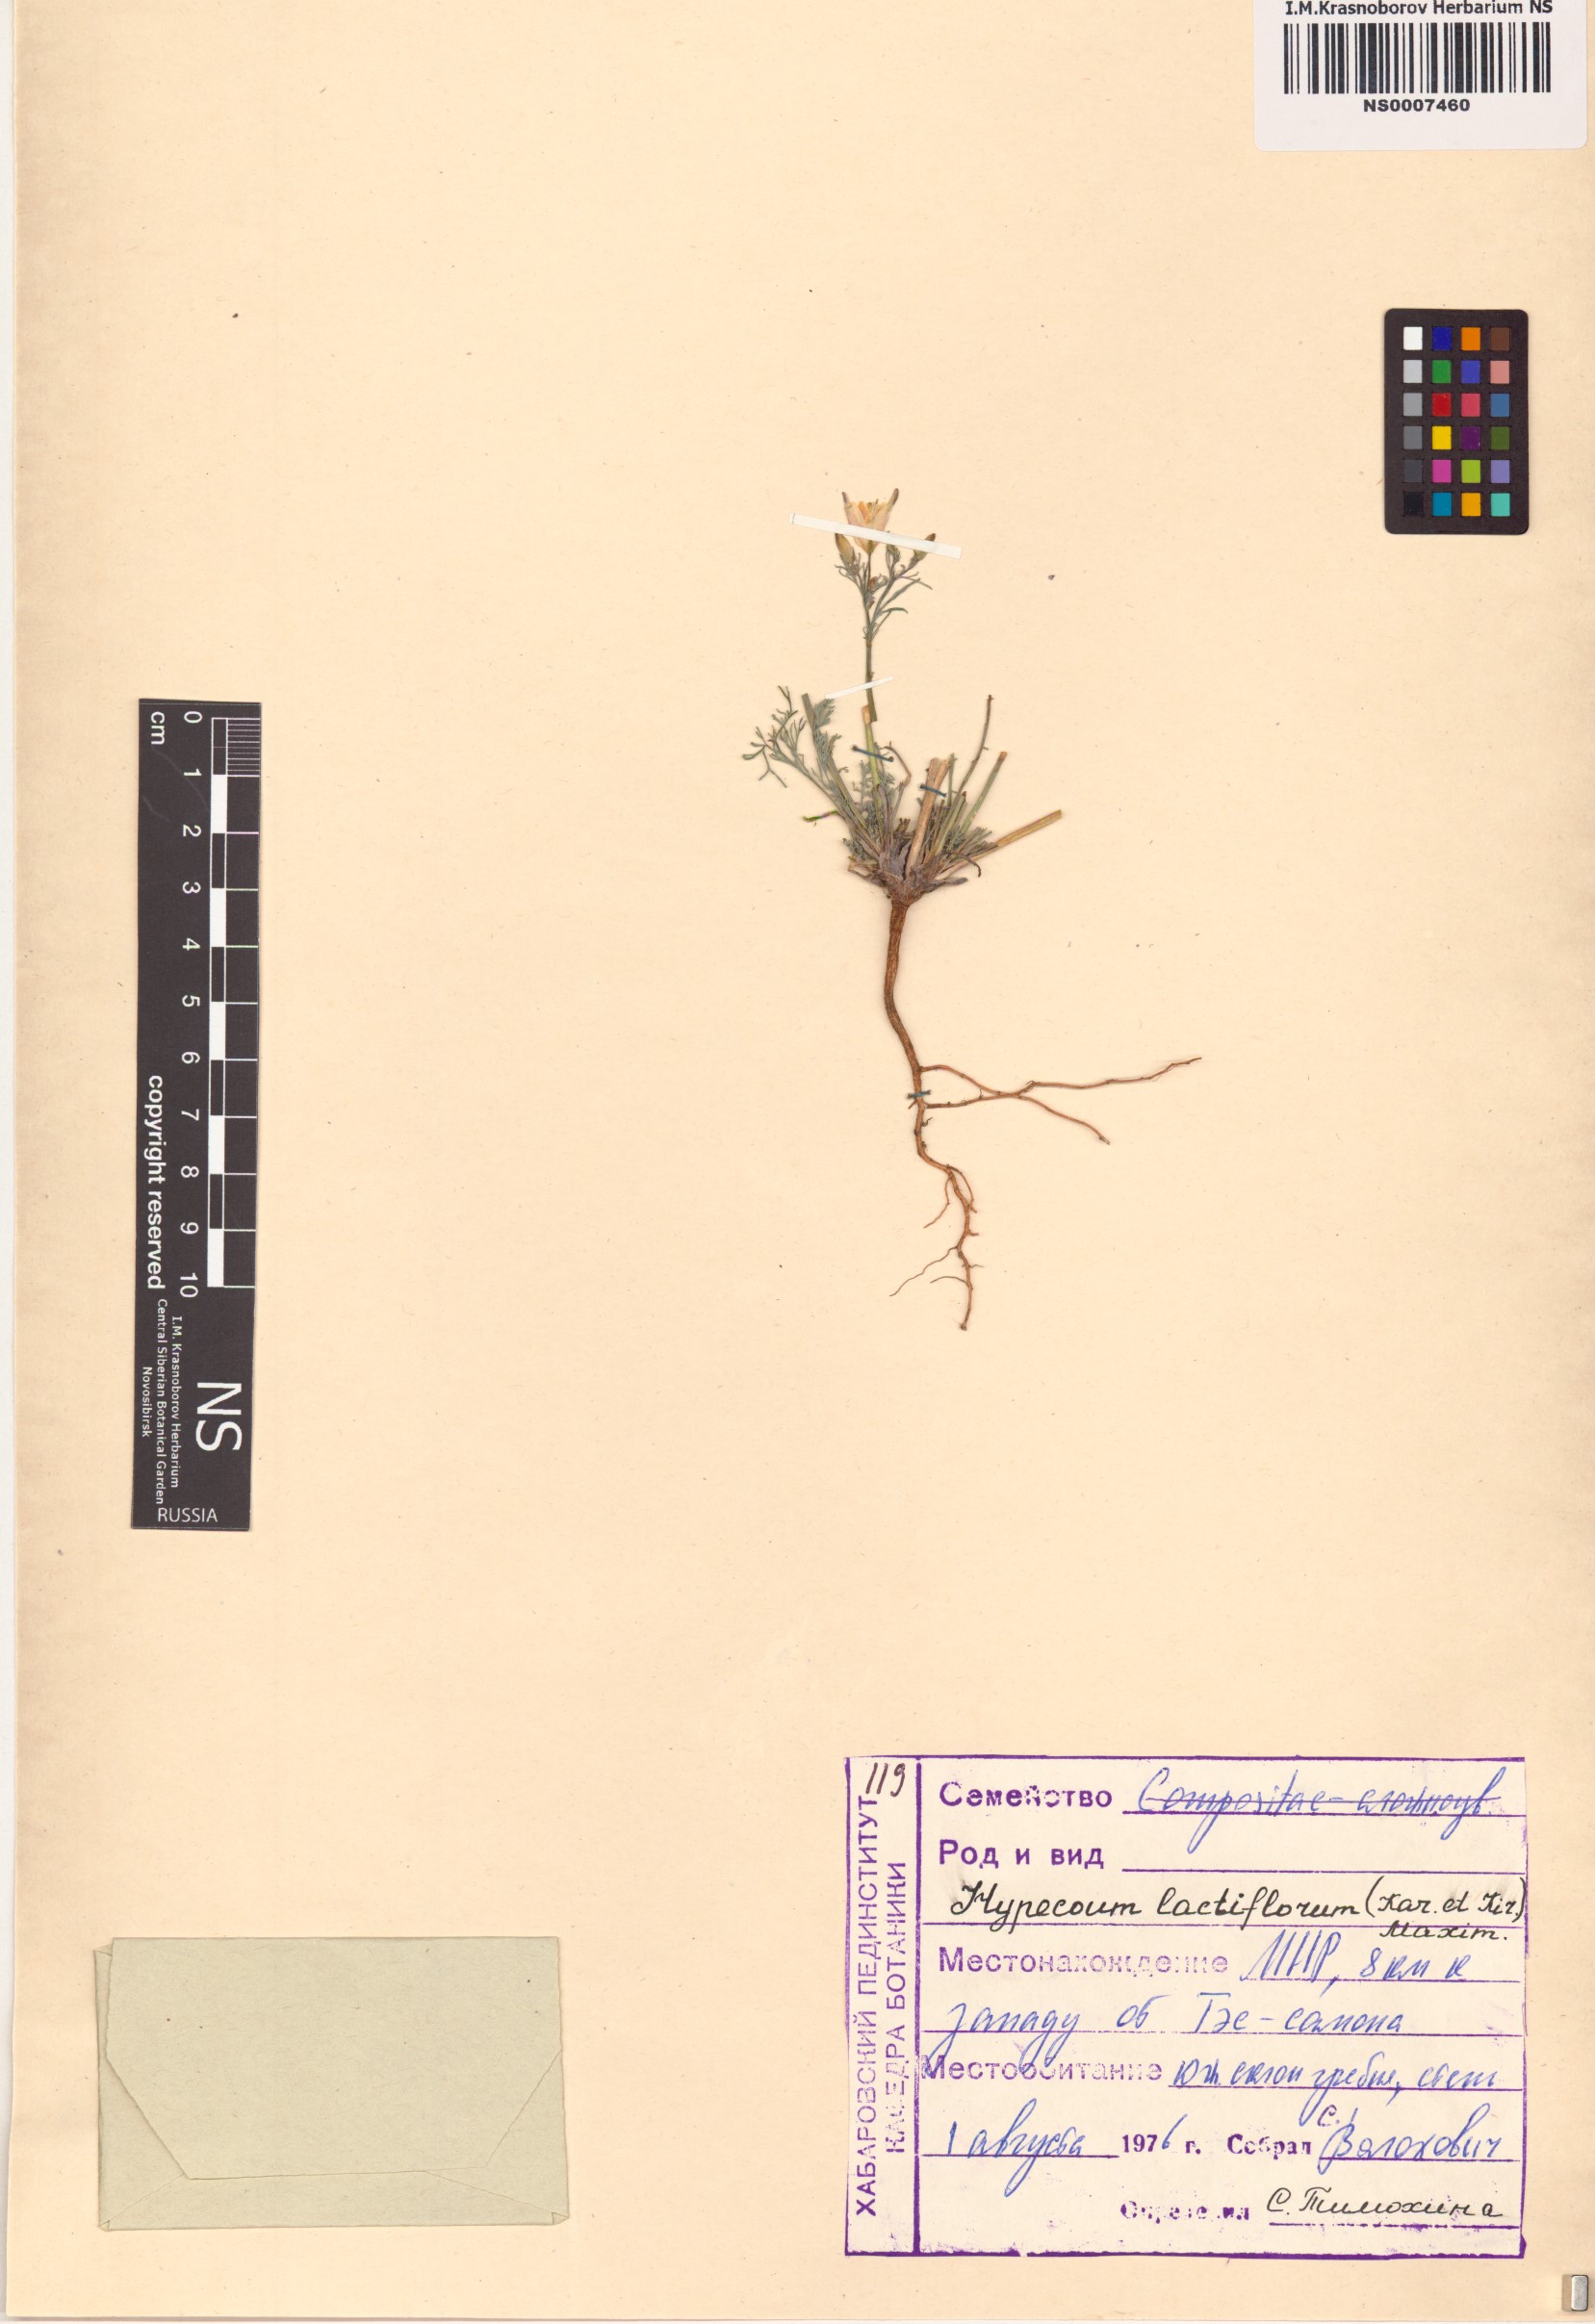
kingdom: Plantae
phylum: Tracheophyta
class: Magnoliopsida
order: Ranunculales
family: Papaveraceae
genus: Hypecoum
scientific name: Hypecoum lactiflorum
